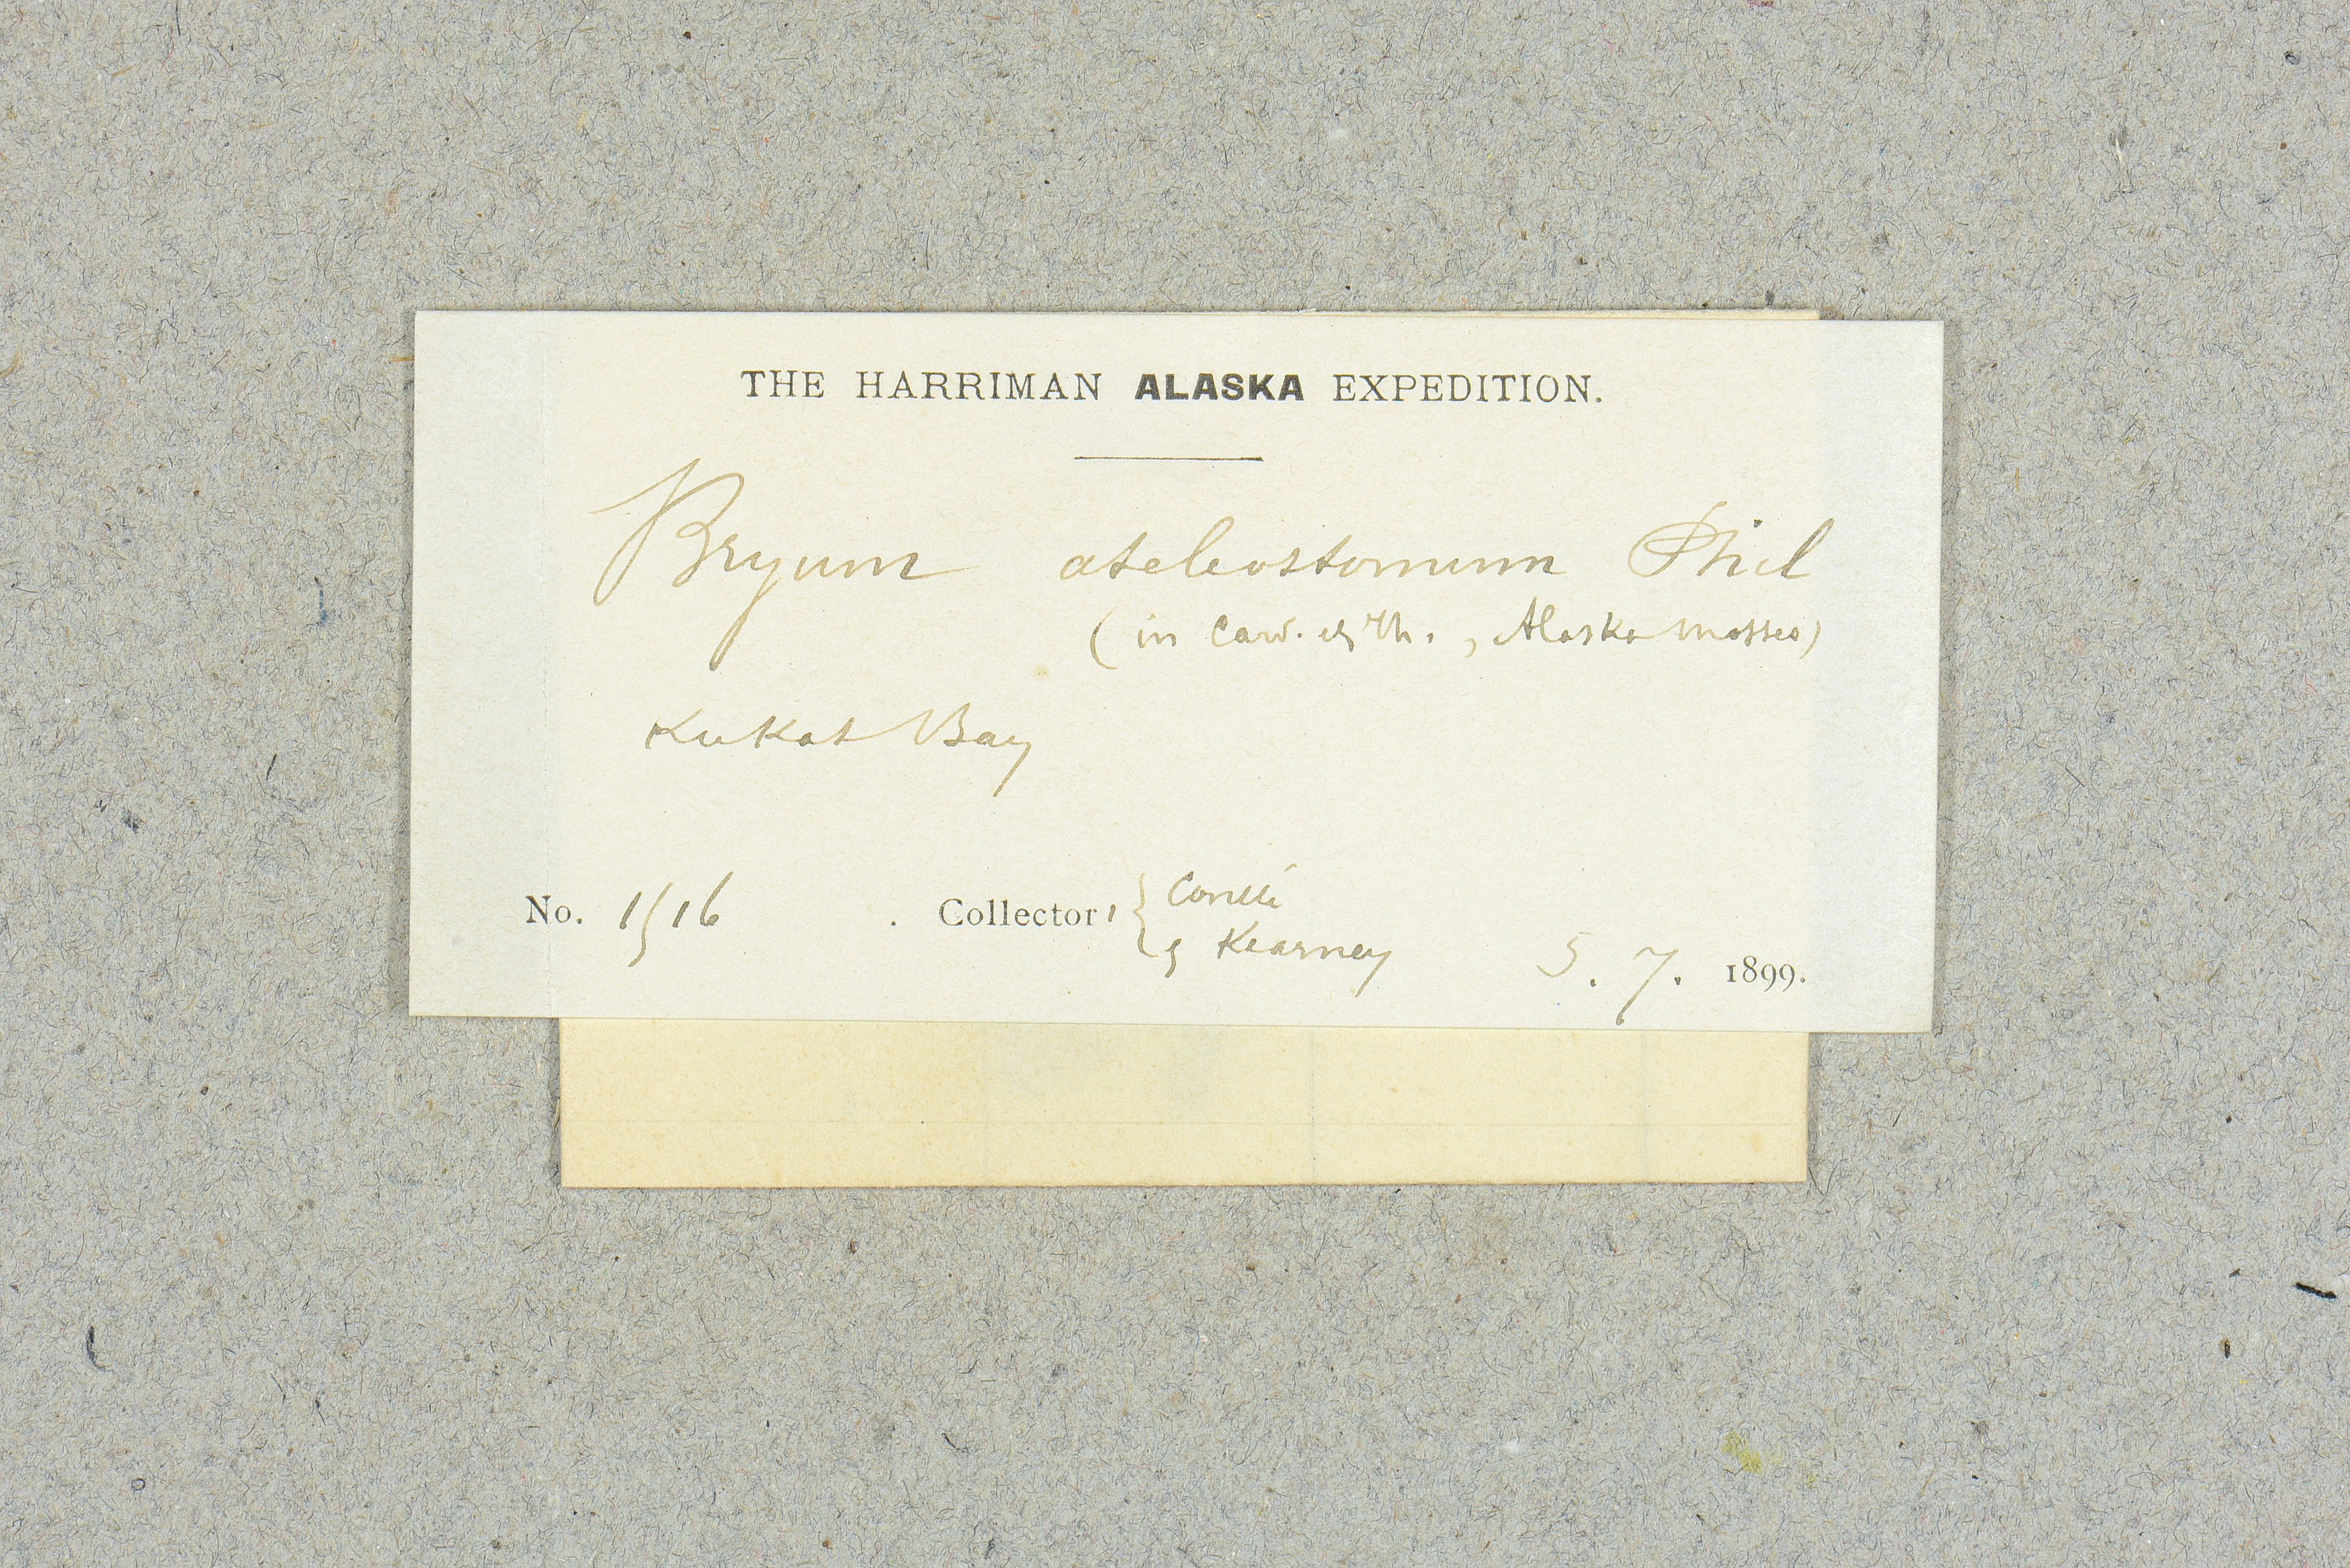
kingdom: Plantae
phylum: Bryophyta
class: Bryopsida
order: Bryales
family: Bryaceae
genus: Ptychostomum
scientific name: Ptychostomum inclinatum
